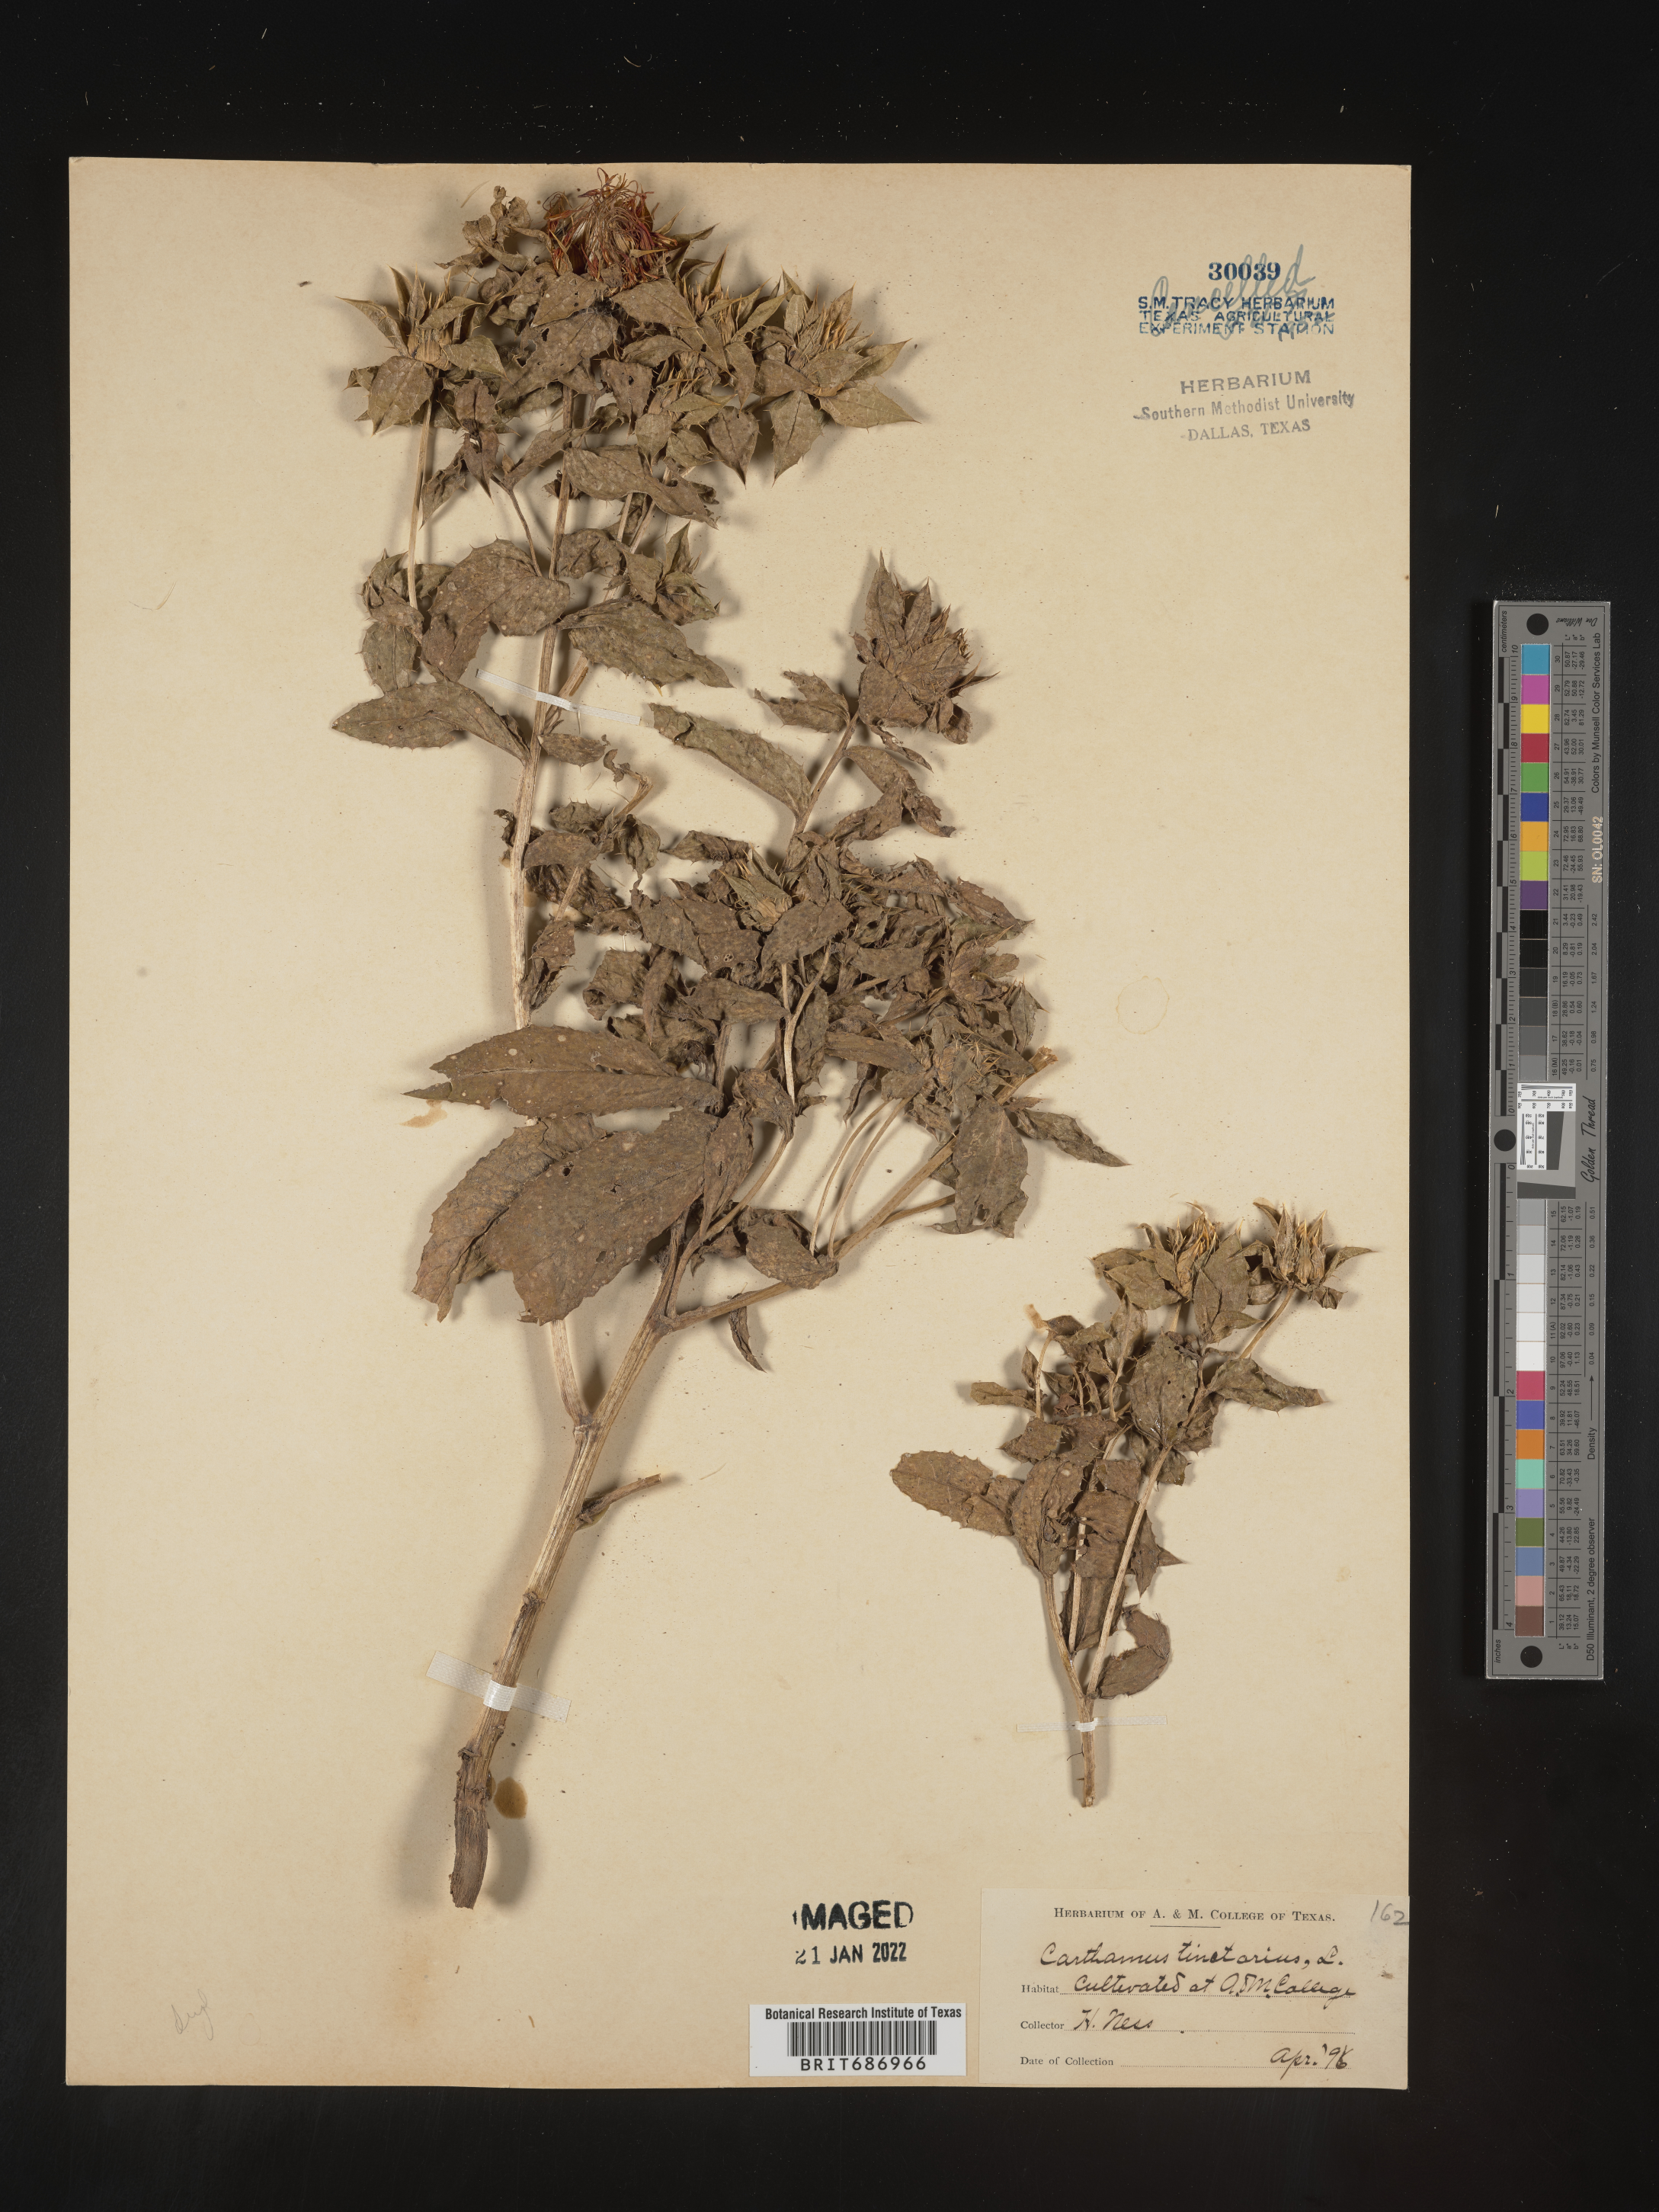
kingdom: Plantae
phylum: Tracheophyta
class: Magnoliopsida
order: Asterales
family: Asteraceae
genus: Carthamus
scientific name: Carthamus
